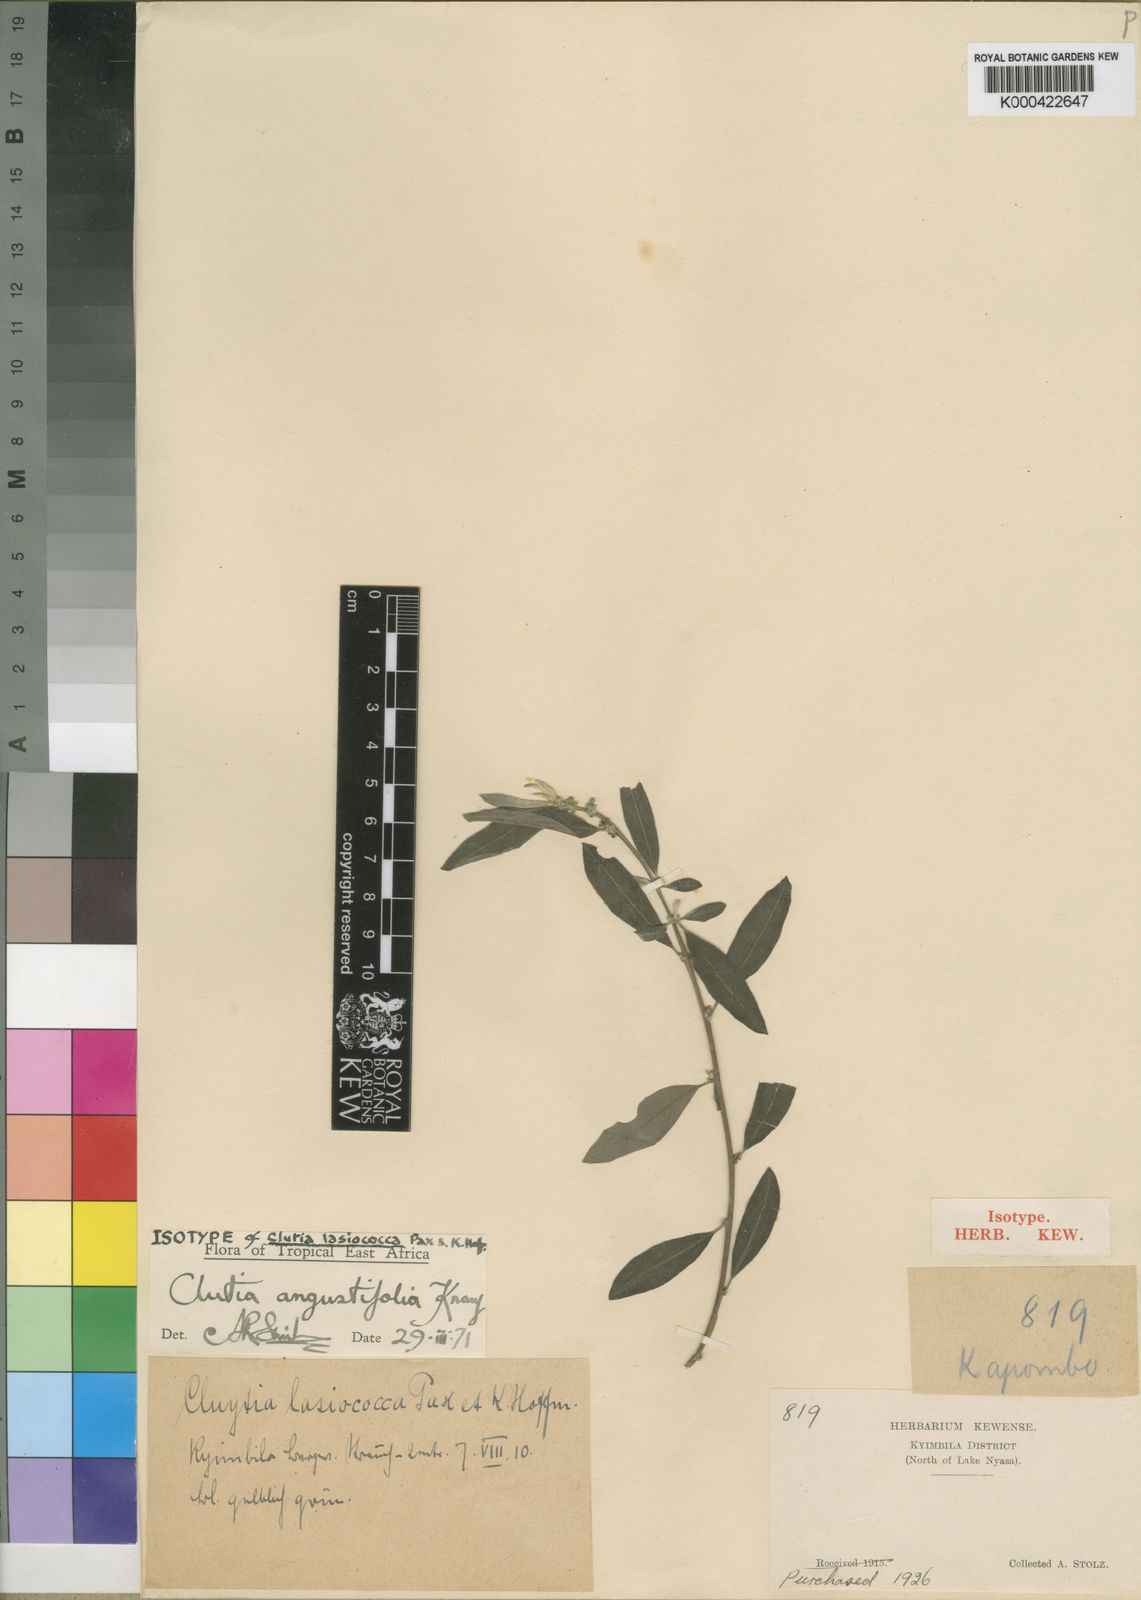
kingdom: Plantae
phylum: Tracheophyta
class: Magnoliopsida
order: Malpighiales
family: Peraceae
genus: Clutia
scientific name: Clutia angustifolia
